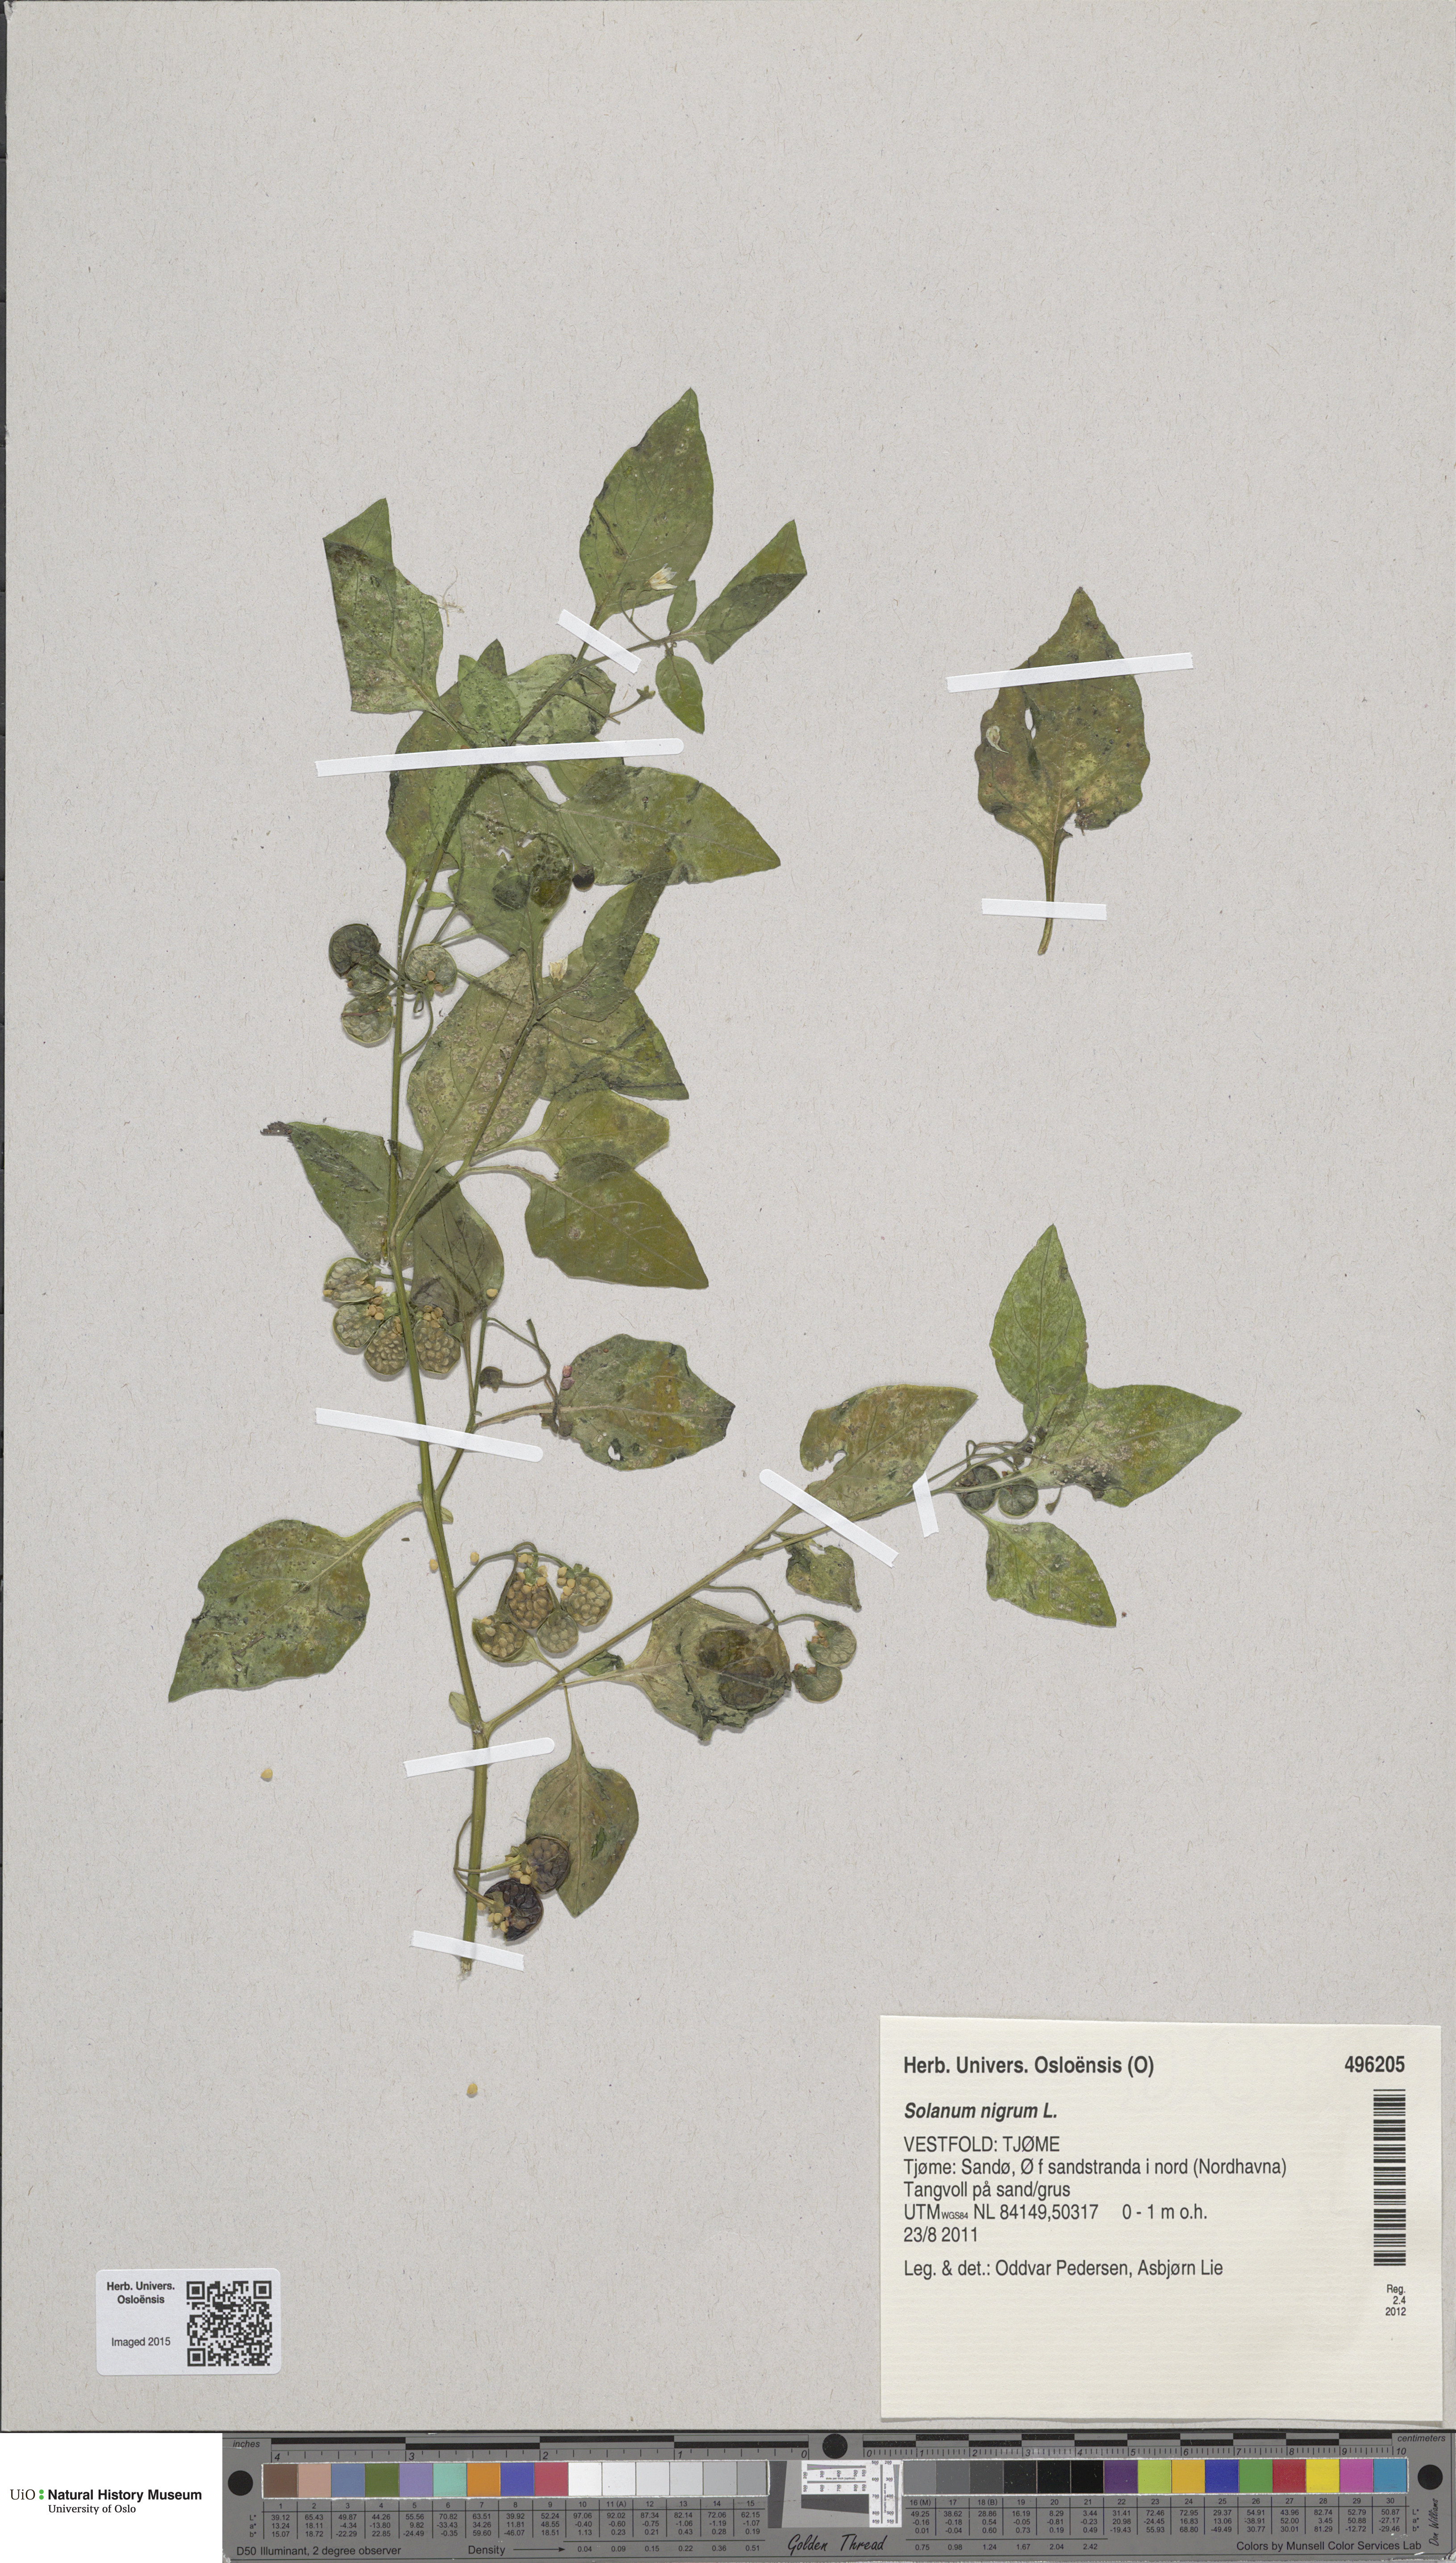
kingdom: Plantae
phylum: Tracheophyta
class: Magnoliopsida
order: Solanales
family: Solanaceae
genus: Solanum
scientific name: Solanum nigrum
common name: Black nightshade
